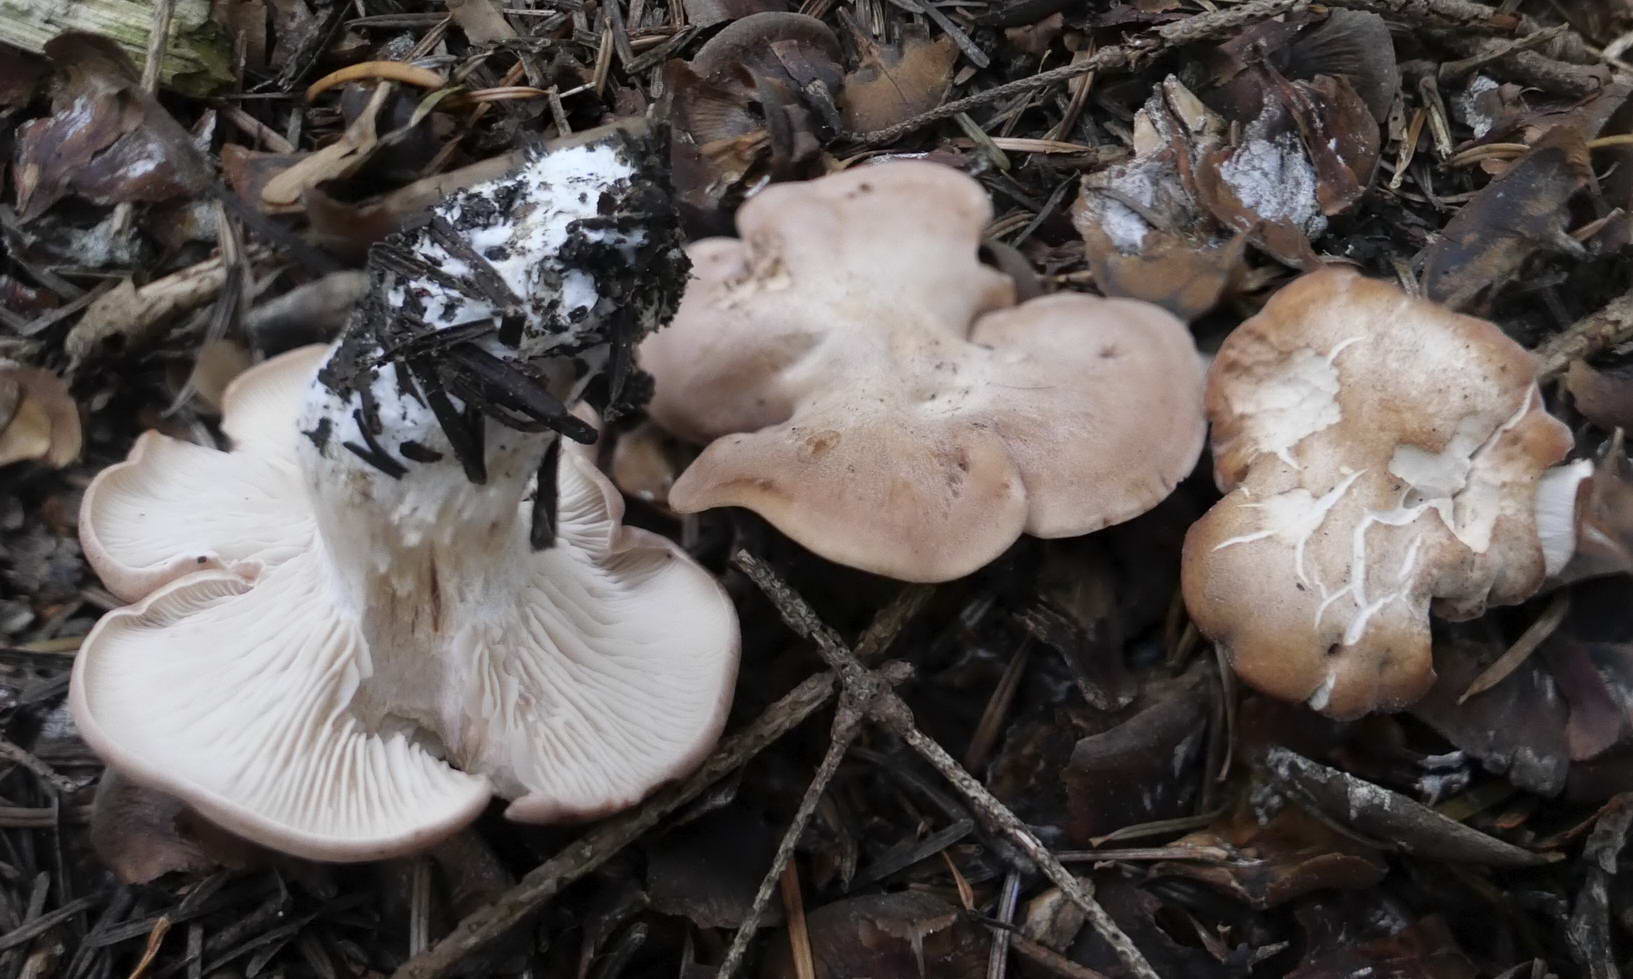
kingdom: Fungi
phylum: Basidiomycota
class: Agaricomycetes
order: Agaricales
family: Entolomataceae
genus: Clitopilus
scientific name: Clitopilus geminus
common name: kødfarvet troldhat
